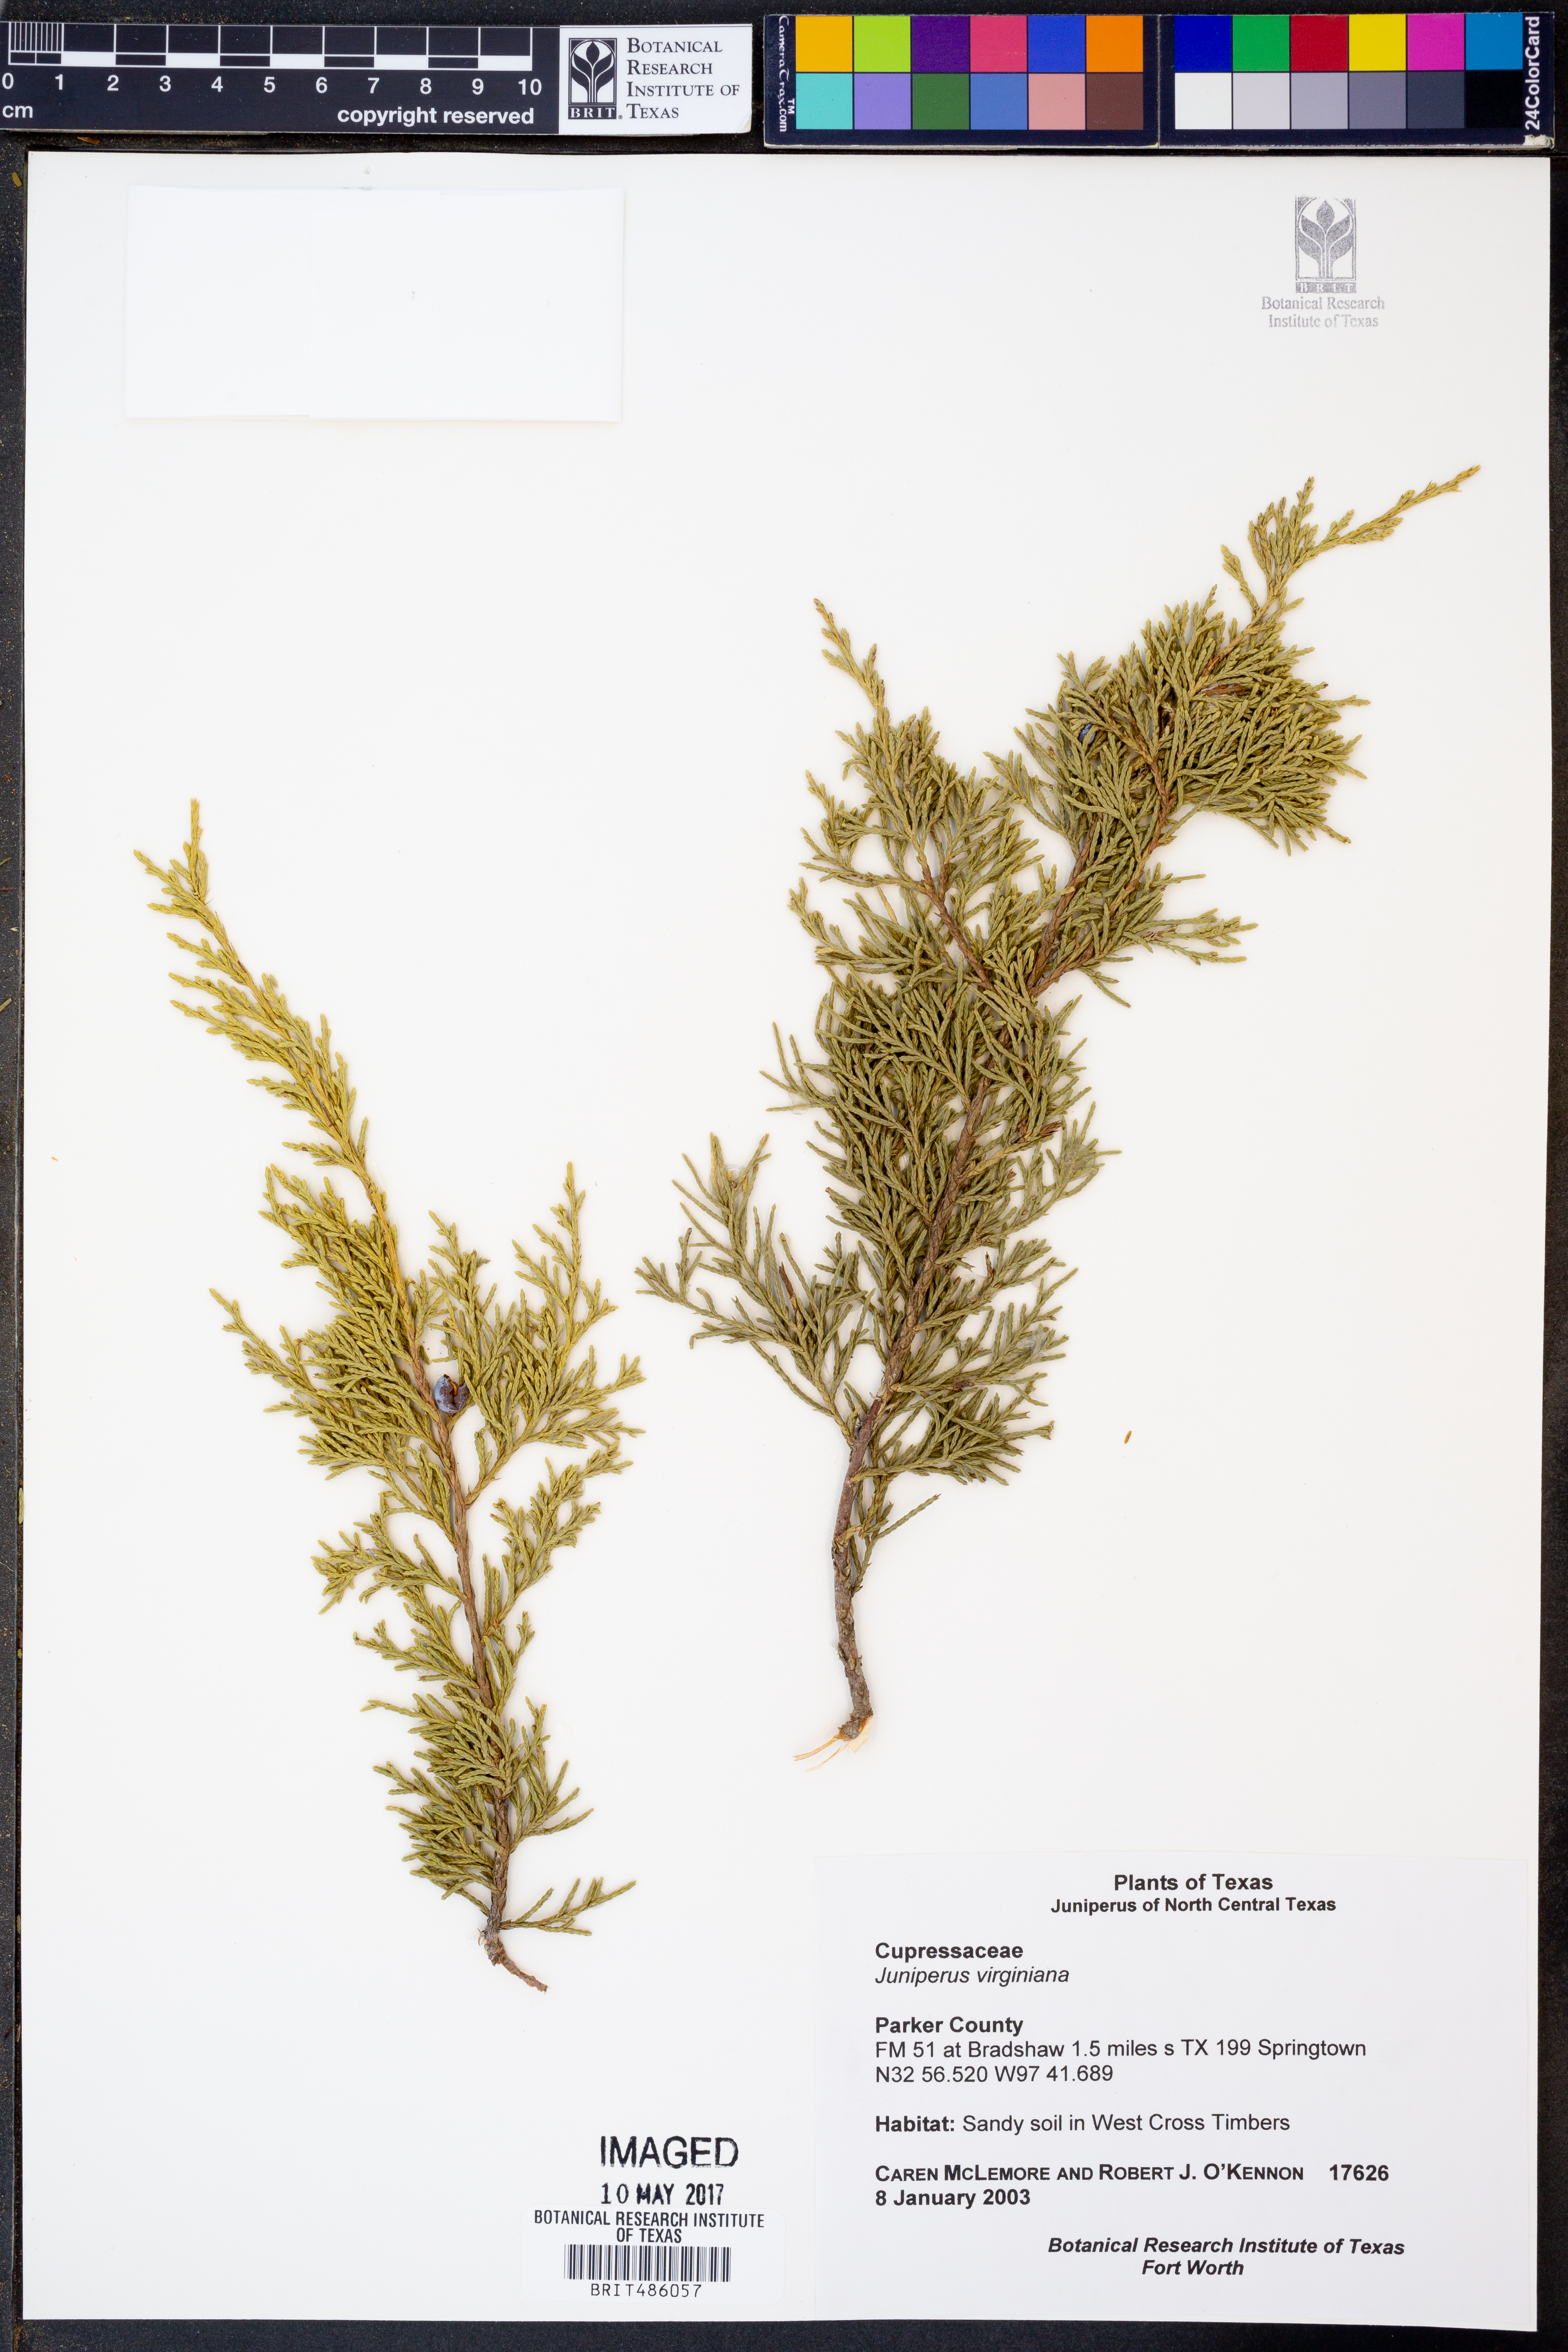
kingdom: Plantae
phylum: Tracheophyta
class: Pinopsida
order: Pinales
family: Cupressaceae
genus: Juniperus
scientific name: Juniperus virginiana
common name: Red juniper
